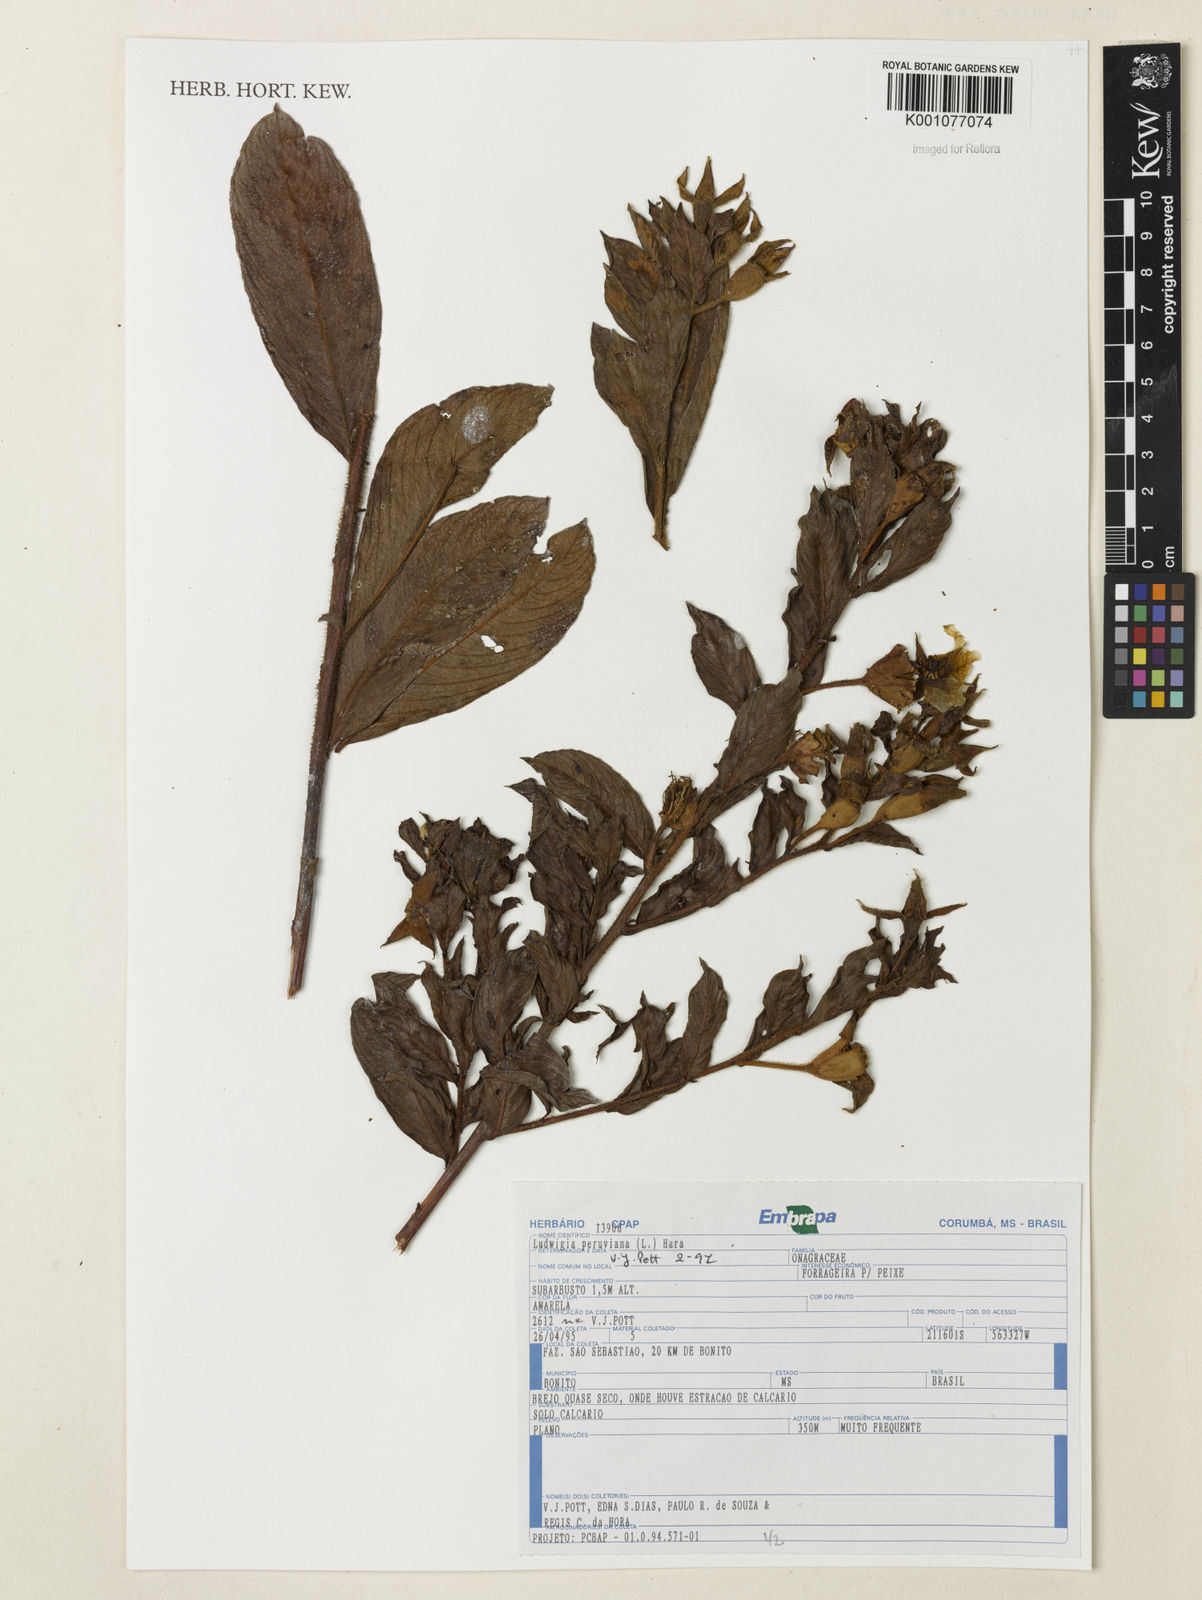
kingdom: Plantae
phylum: Tracheophyta
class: Magnoliopsida
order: Myrtales
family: Onagraceae
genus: Ludwigia
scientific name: Ludwigia peruviana
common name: Peruvian primrose-willow
